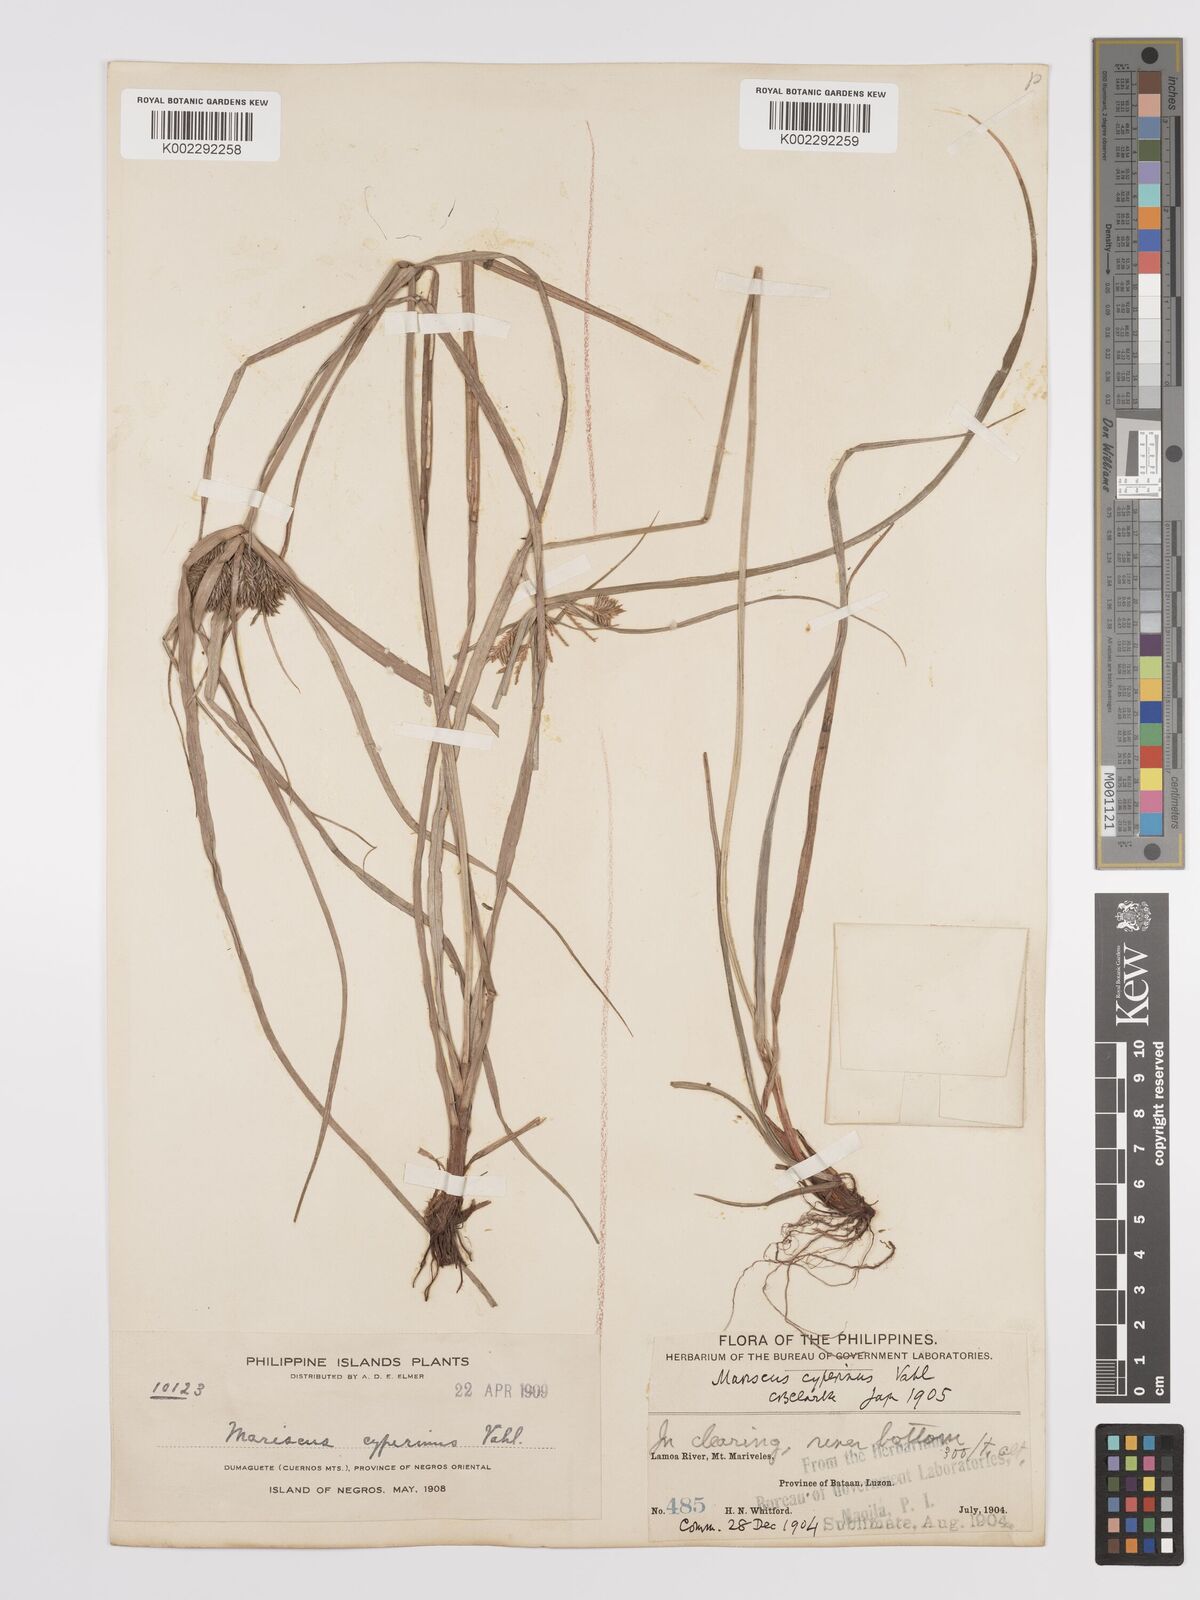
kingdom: Plantae
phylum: Tracheophyta
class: Liliopsida
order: Poales
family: Cyperaceae
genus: Cyperus
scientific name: Cyperus cyperinus
